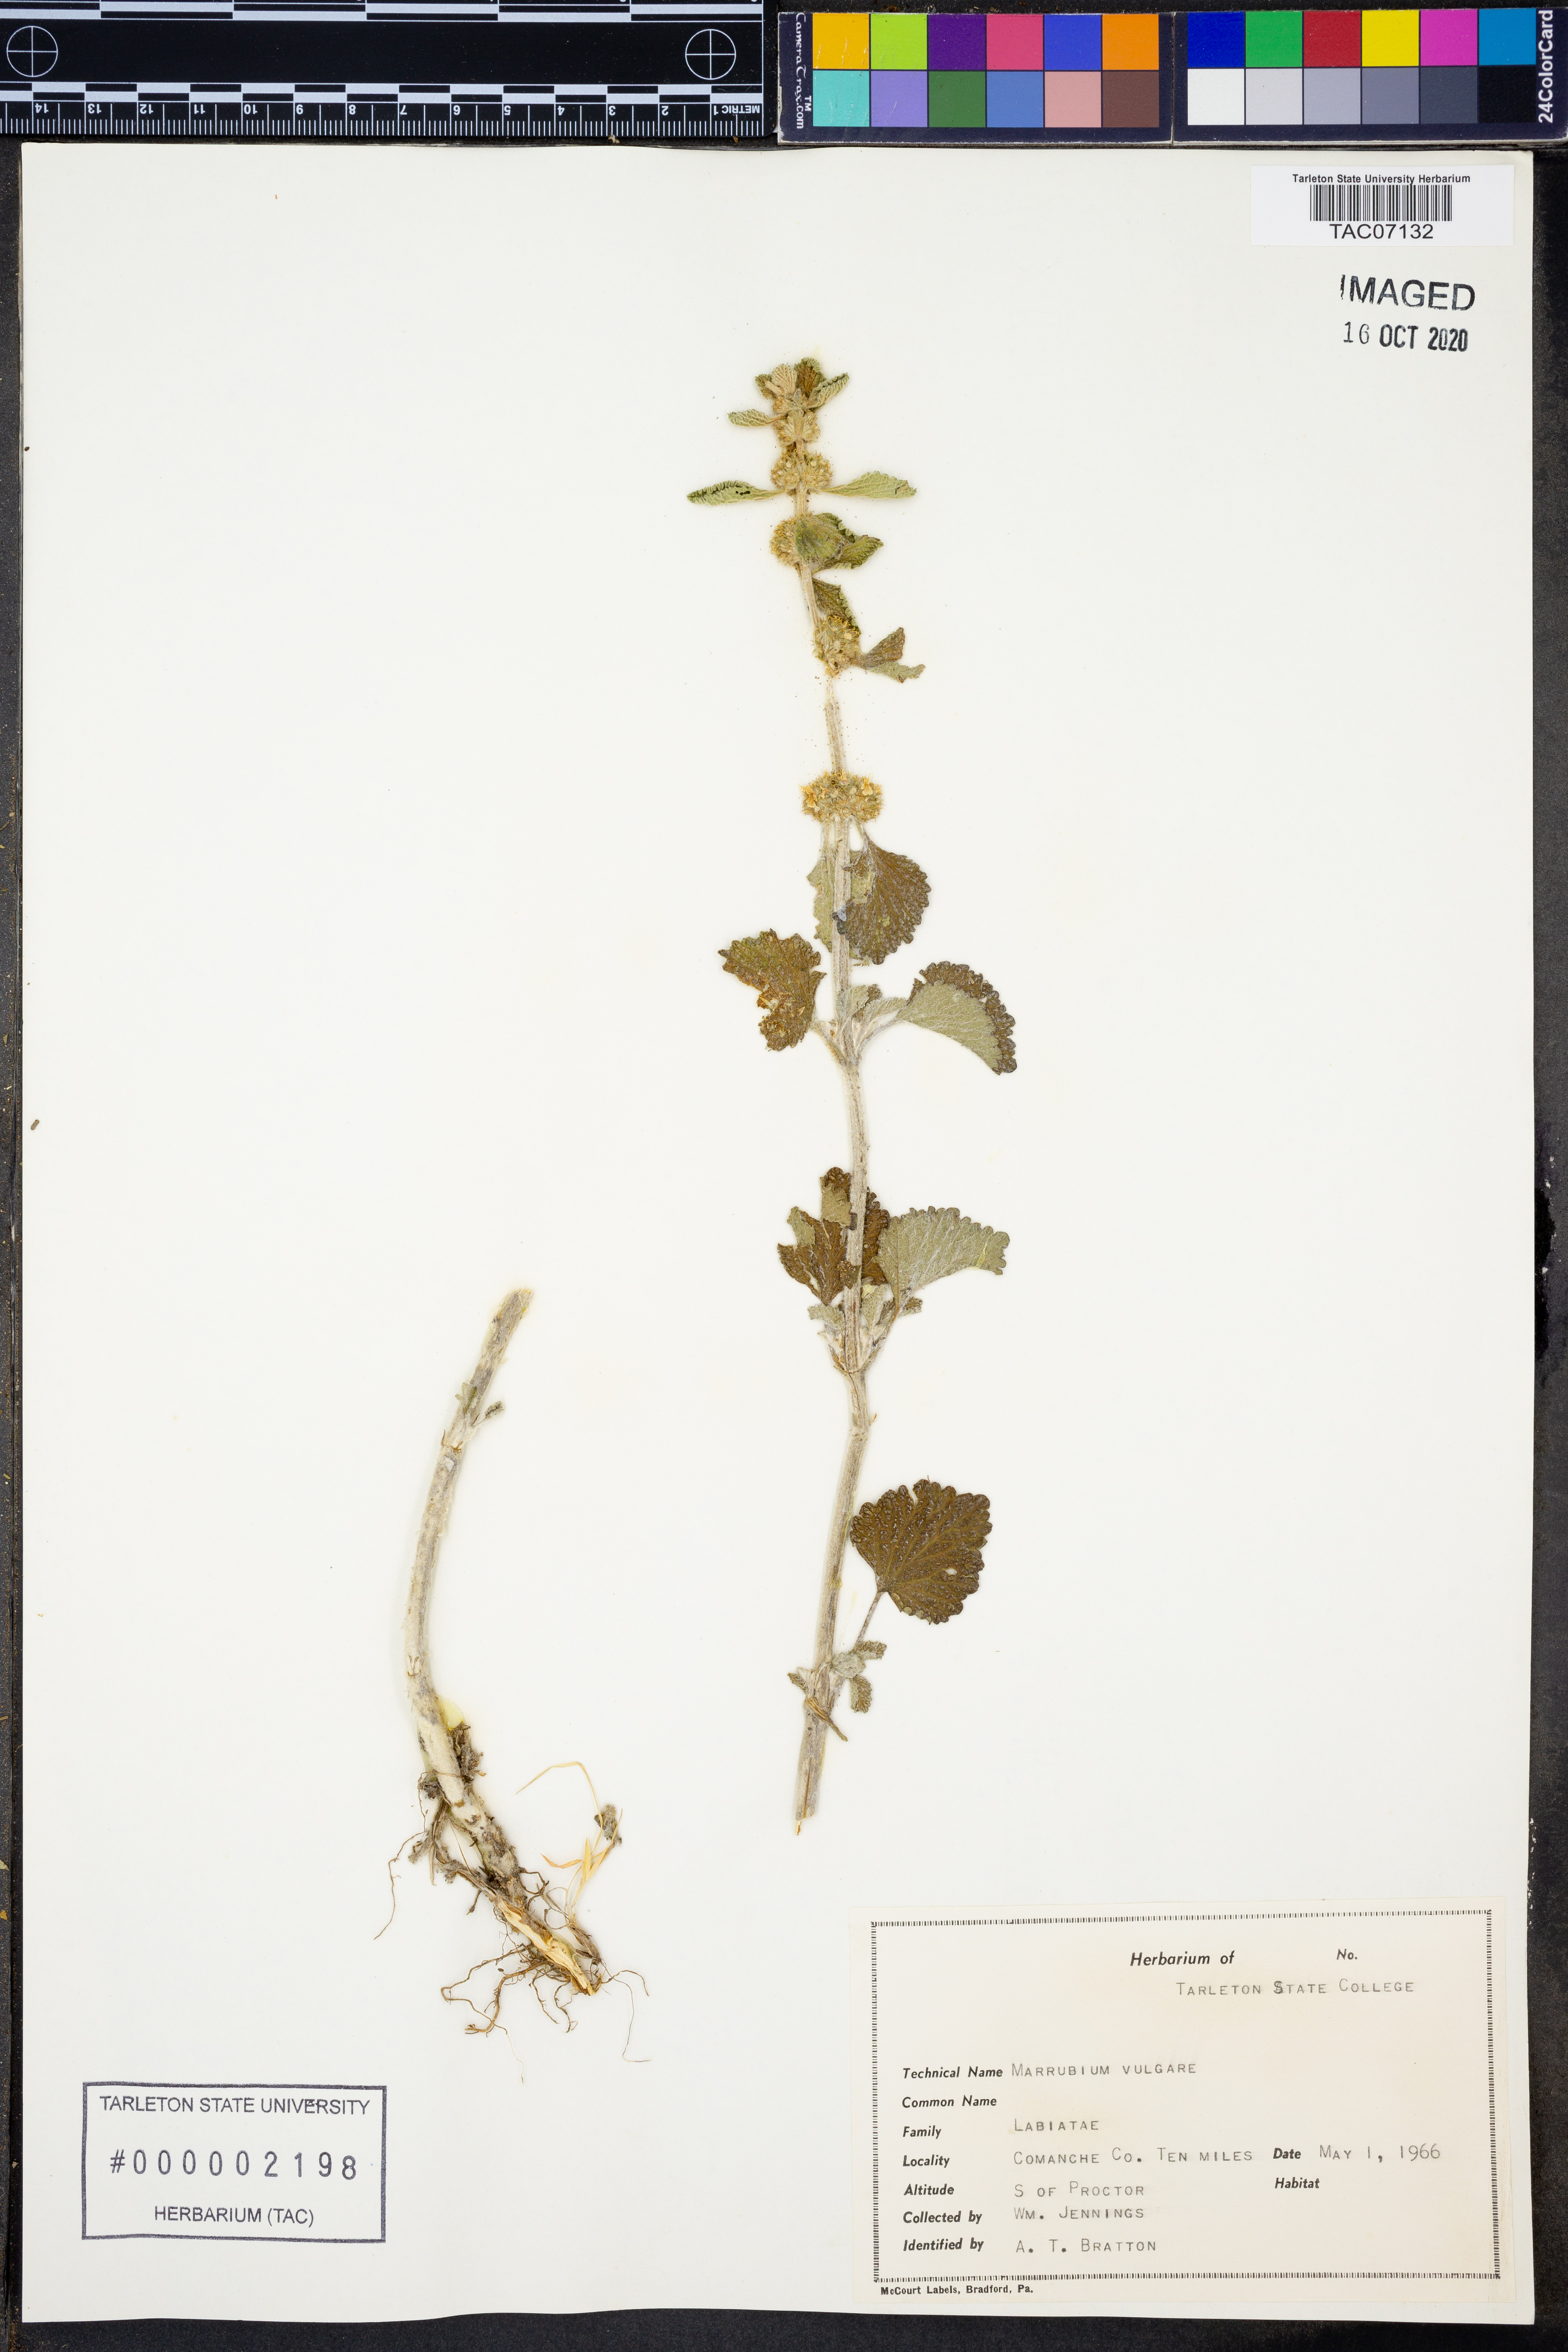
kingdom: Plantae
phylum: Tracheophyta
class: Magnoliopsida
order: Lamiales
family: Lamiaceae
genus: Marrubium
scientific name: Marrubium vulgare
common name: Horehound
